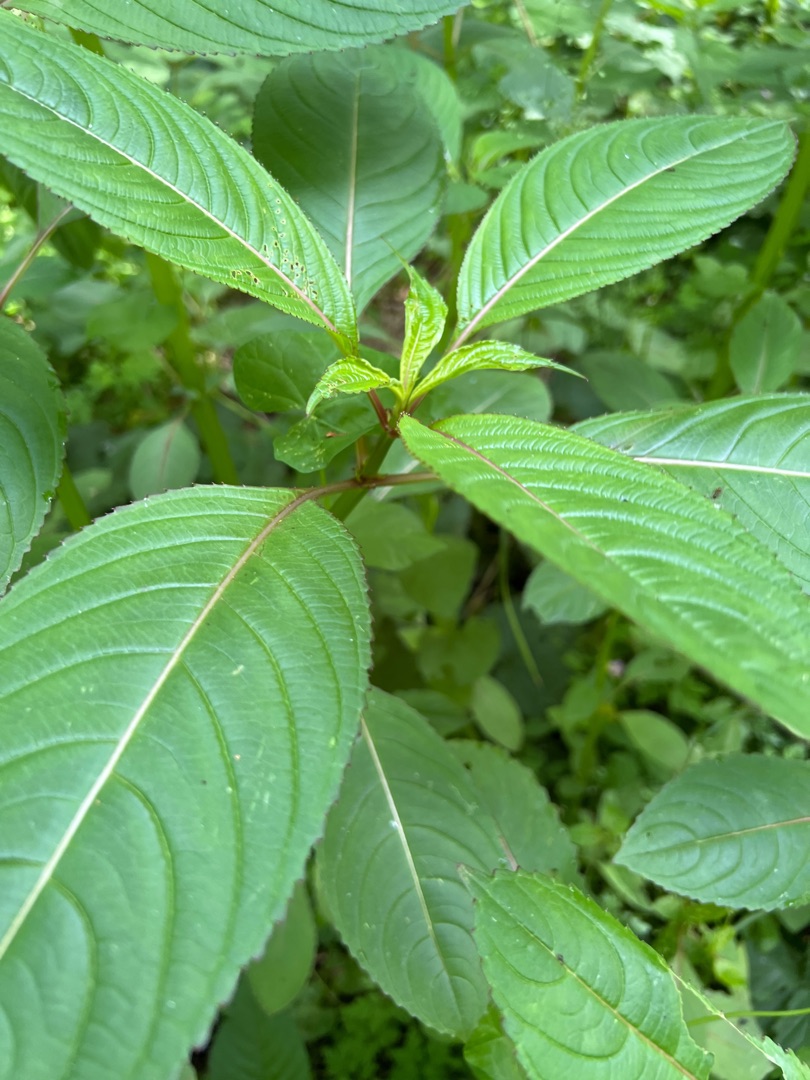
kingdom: Plantae
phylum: Tracheophyta
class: Magnoliopsida
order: Ericales
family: Balsaminaceae
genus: Impatiens
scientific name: Impatiens glandulifera
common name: Kæmpe-balsamin
